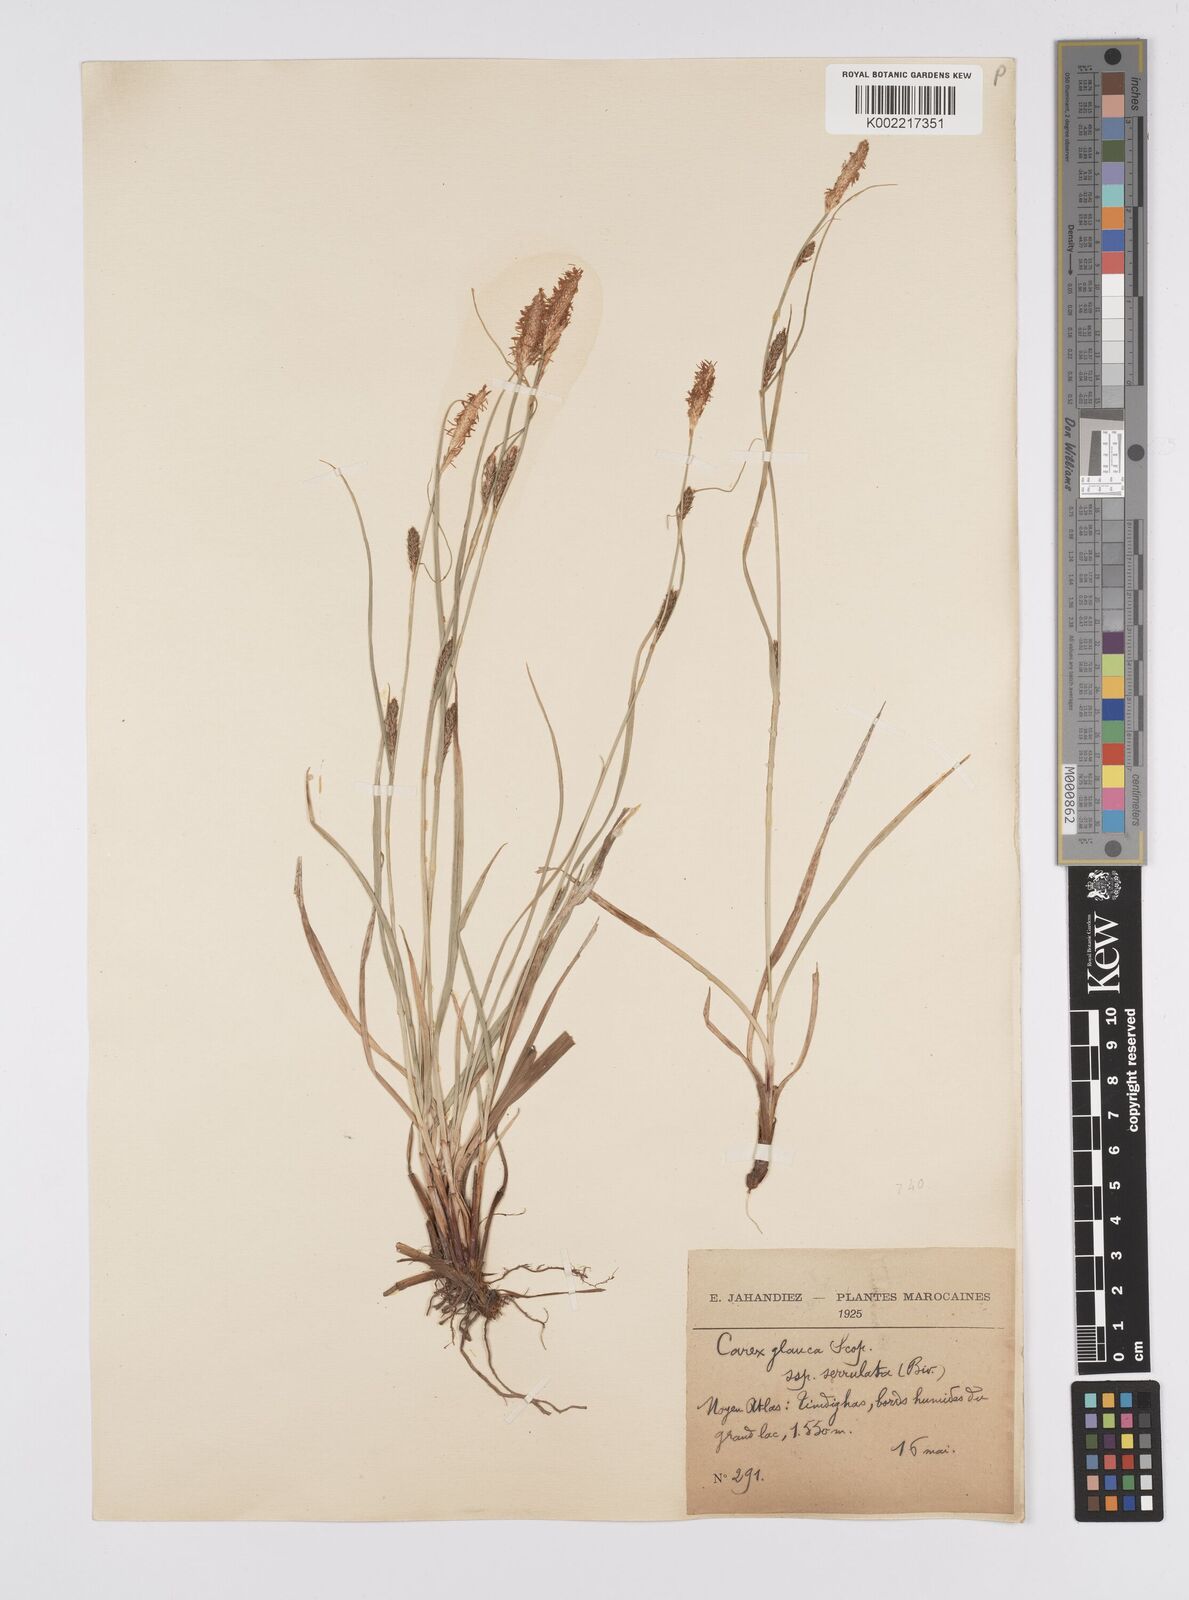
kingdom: Plantae
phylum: Tracheophyta
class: Liliopsida
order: Poales
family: Cyperaceae
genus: Carex
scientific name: Carex flacca
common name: Glaucous sedge
